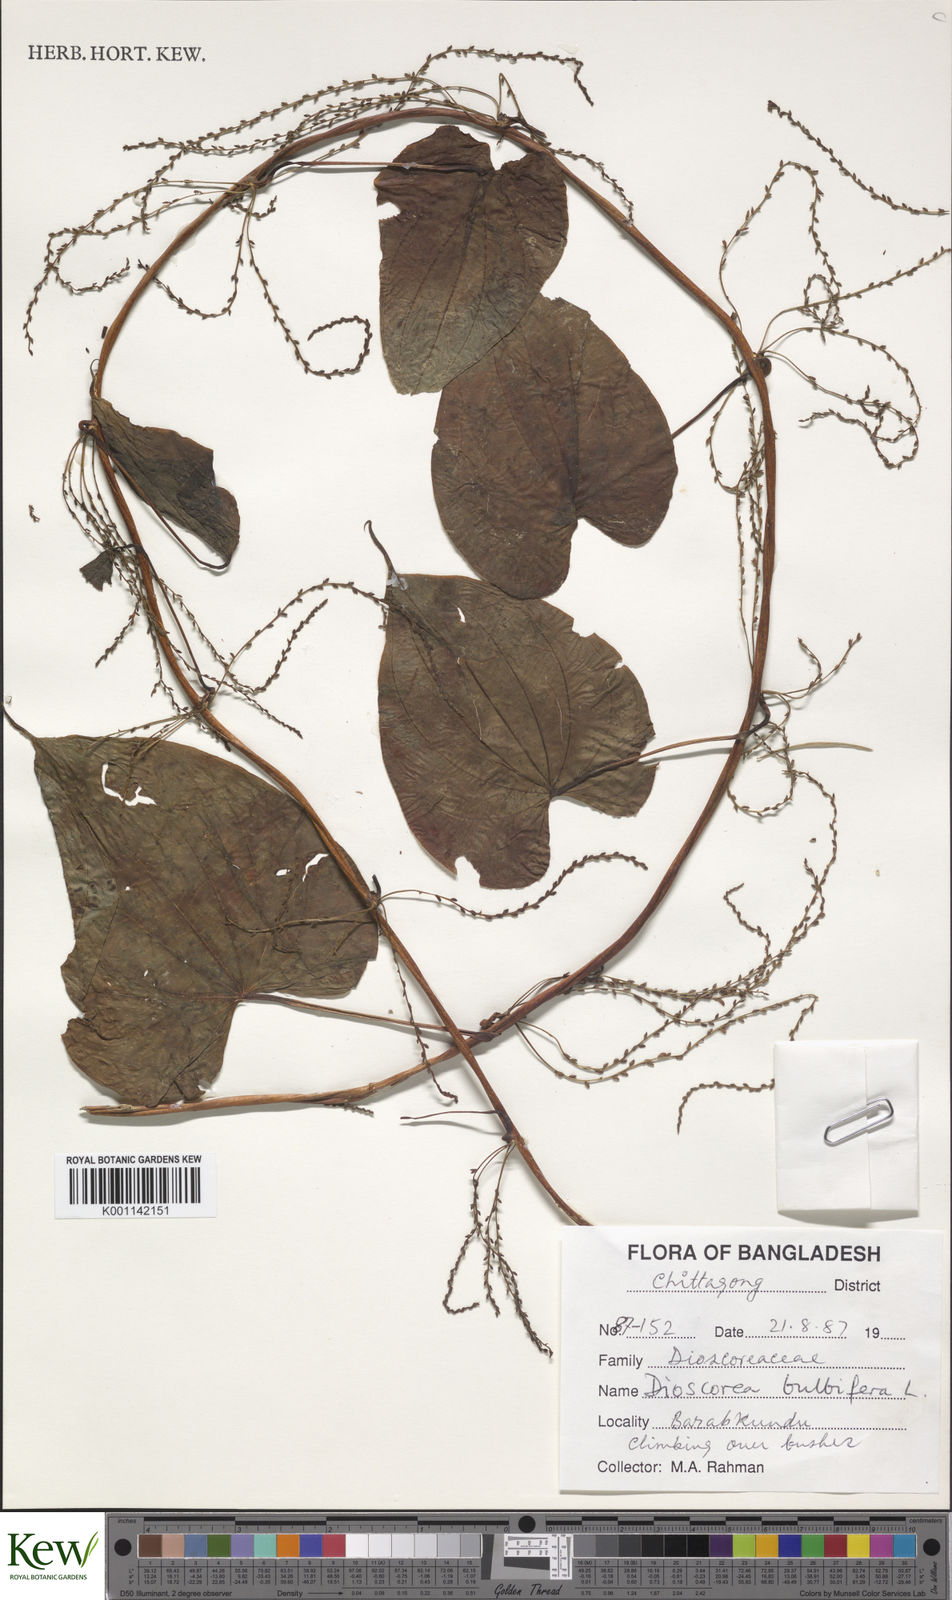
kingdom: Plantae
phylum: Tracheophyta
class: Liliopsida
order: Dioscoreales
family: Dioscoreaceae
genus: Dioscorea
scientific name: Dioscorea bulbifera
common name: Air yam
